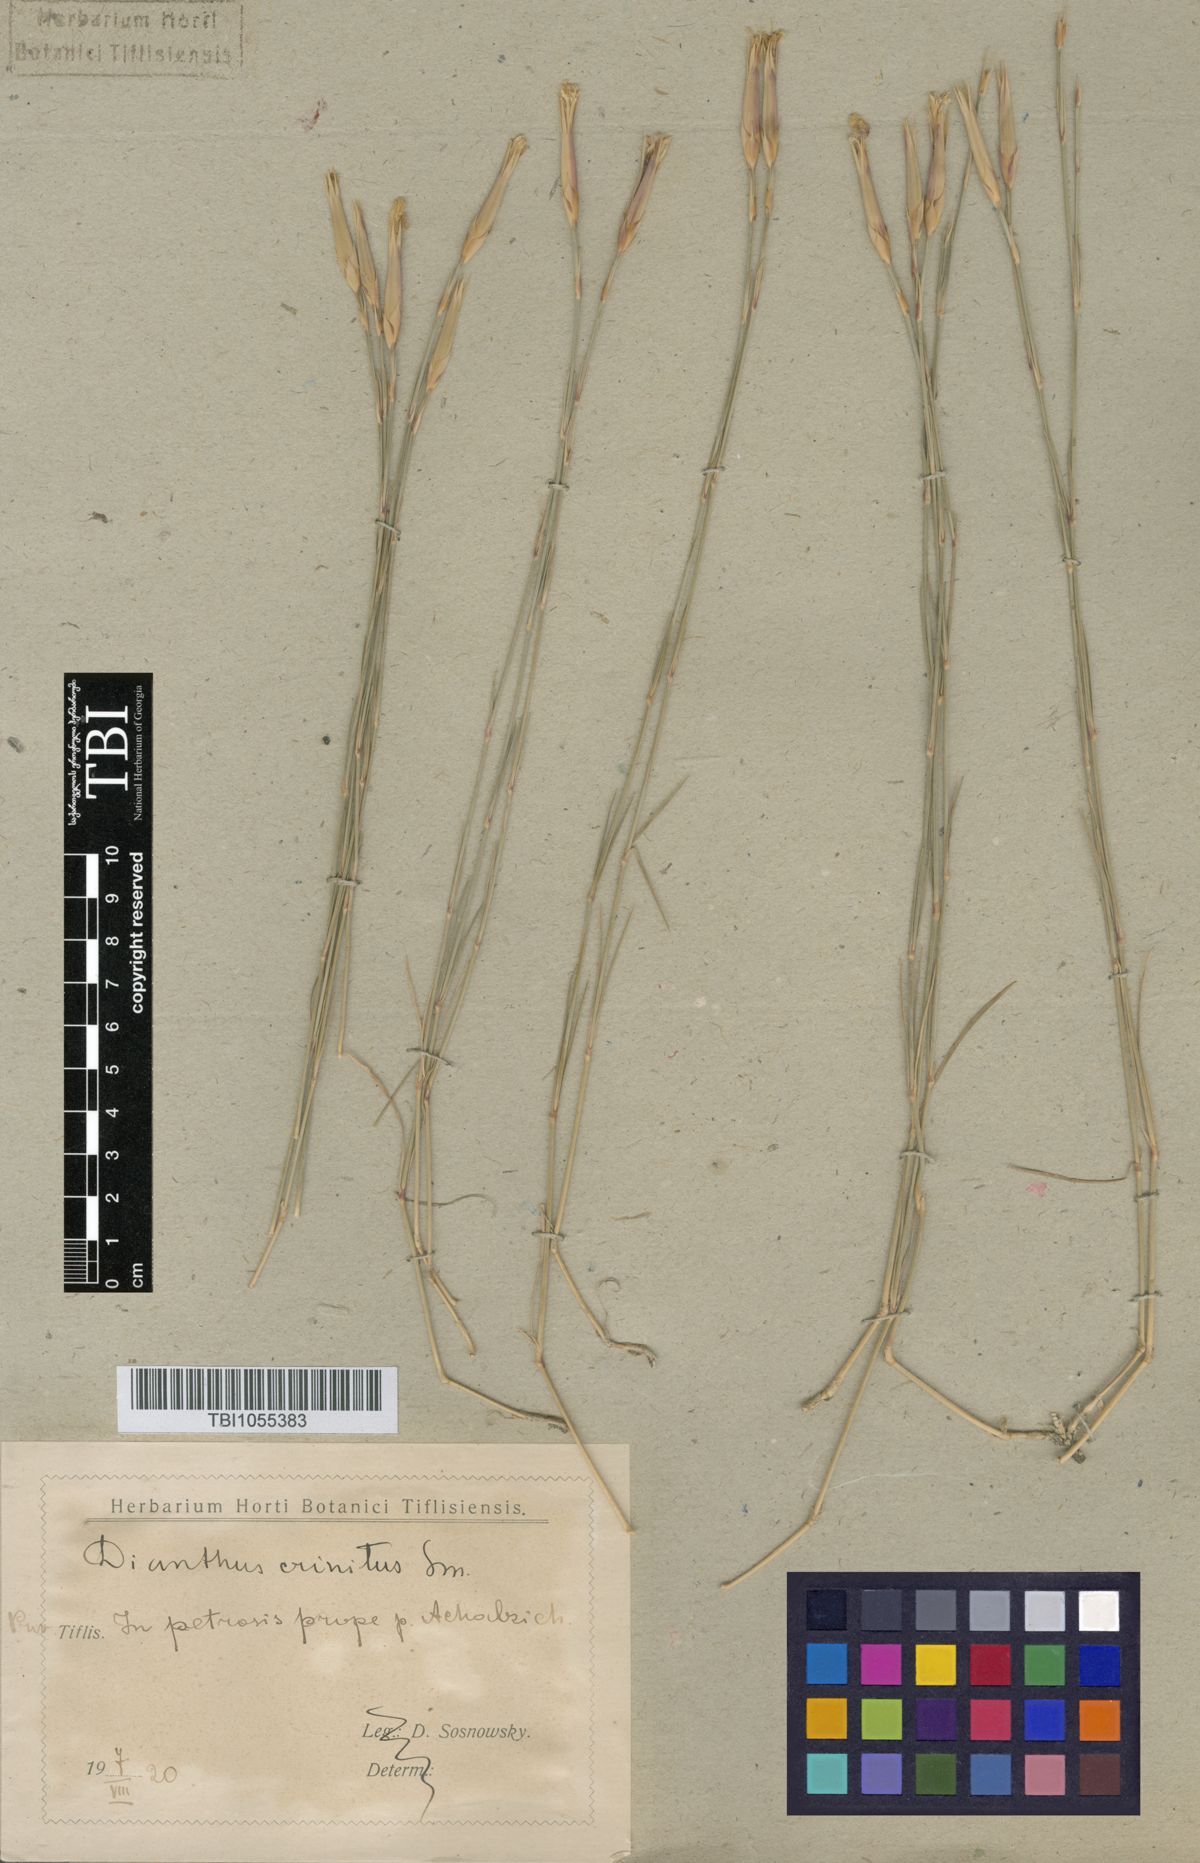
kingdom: Plantae
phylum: Tracheophyta
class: Magnoliopsida
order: Caryophyllales
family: Caryophyllaceae
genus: Dianthus
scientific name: Dianthus crinitus
